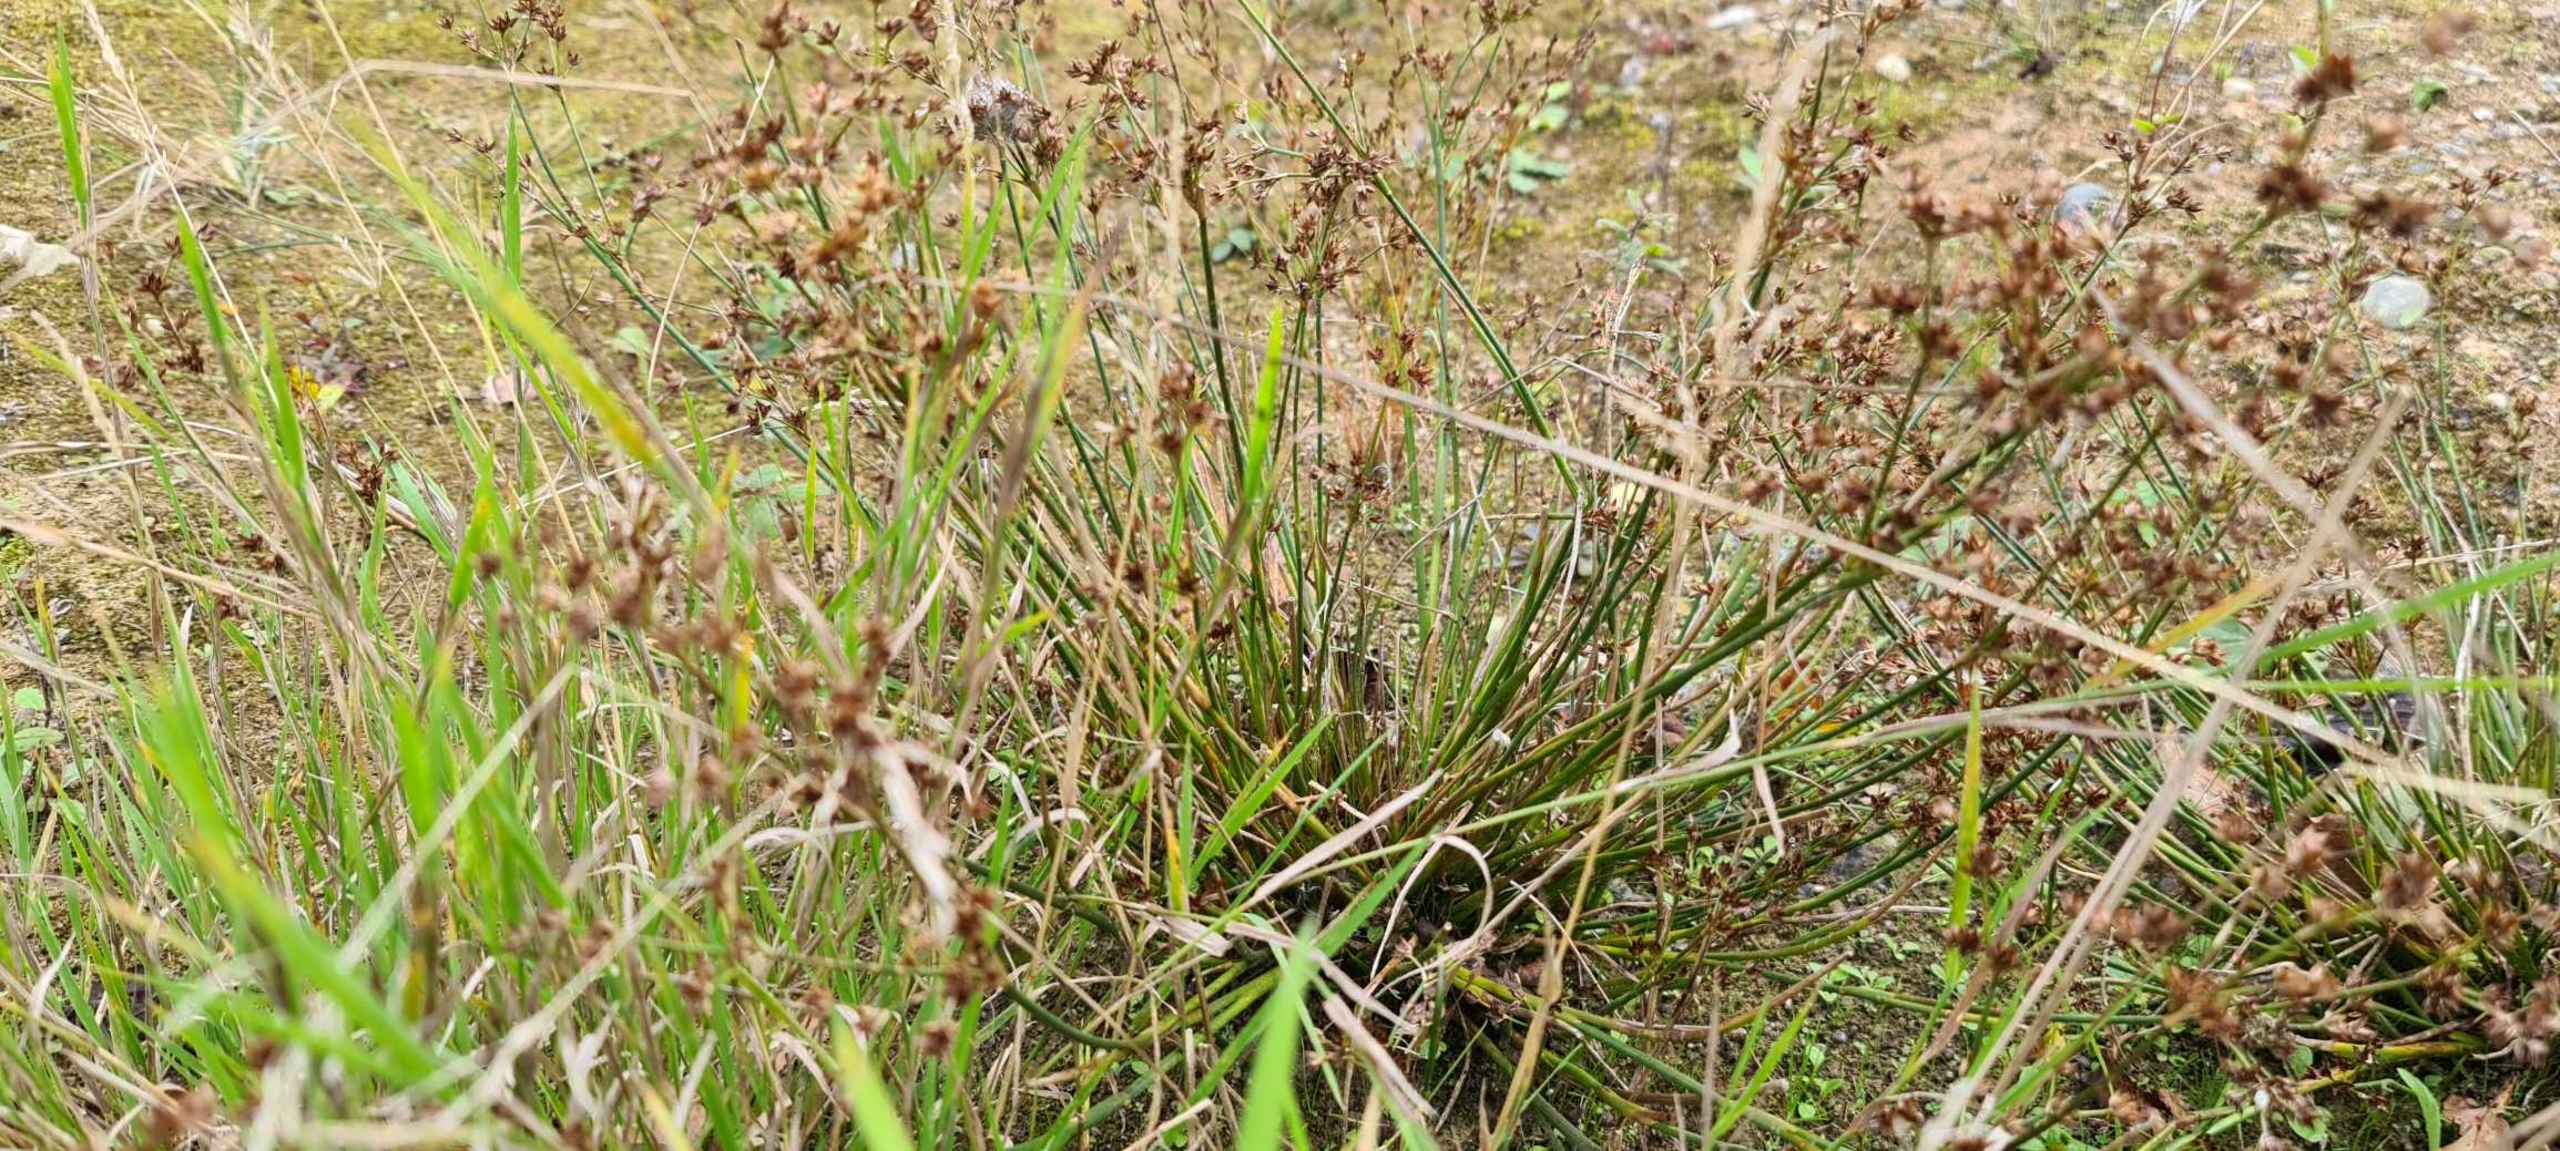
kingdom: Plantae
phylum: Tracheophyta
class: Liliopsida
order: Poales
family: Juncaceae
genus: Juncus
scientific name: Juncus articulatus
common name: Glanskapslet siv
